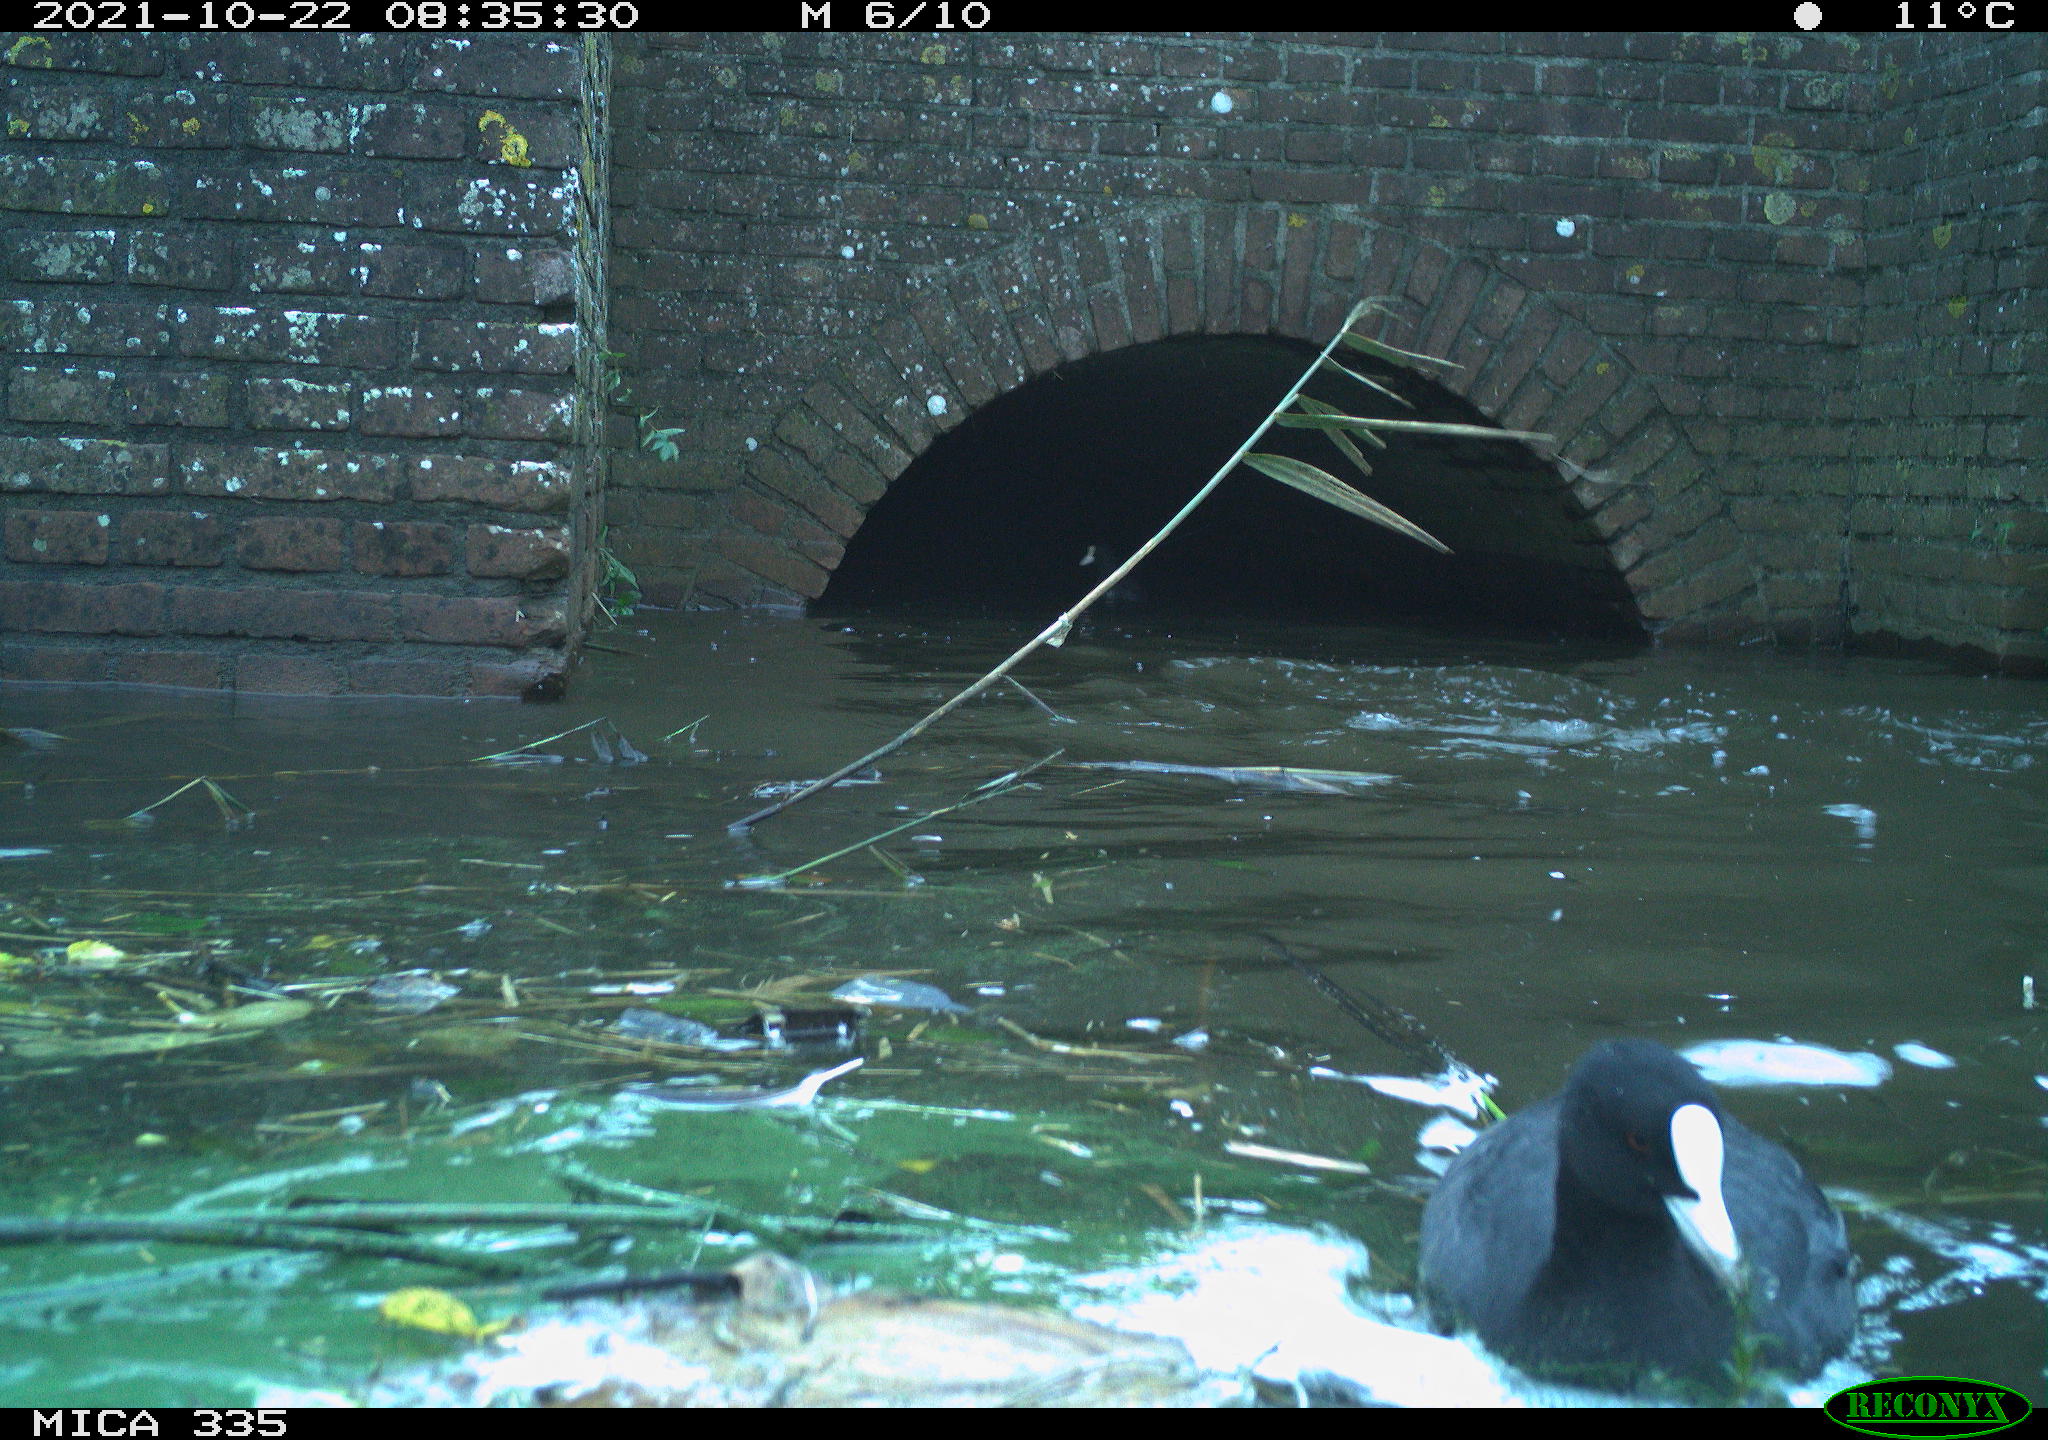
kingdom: Animalia
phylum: Chordata
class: Aves
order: Gruiformes
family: Rallidae
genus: Fulica
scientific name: Fulica atra
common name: Eurasian coot
